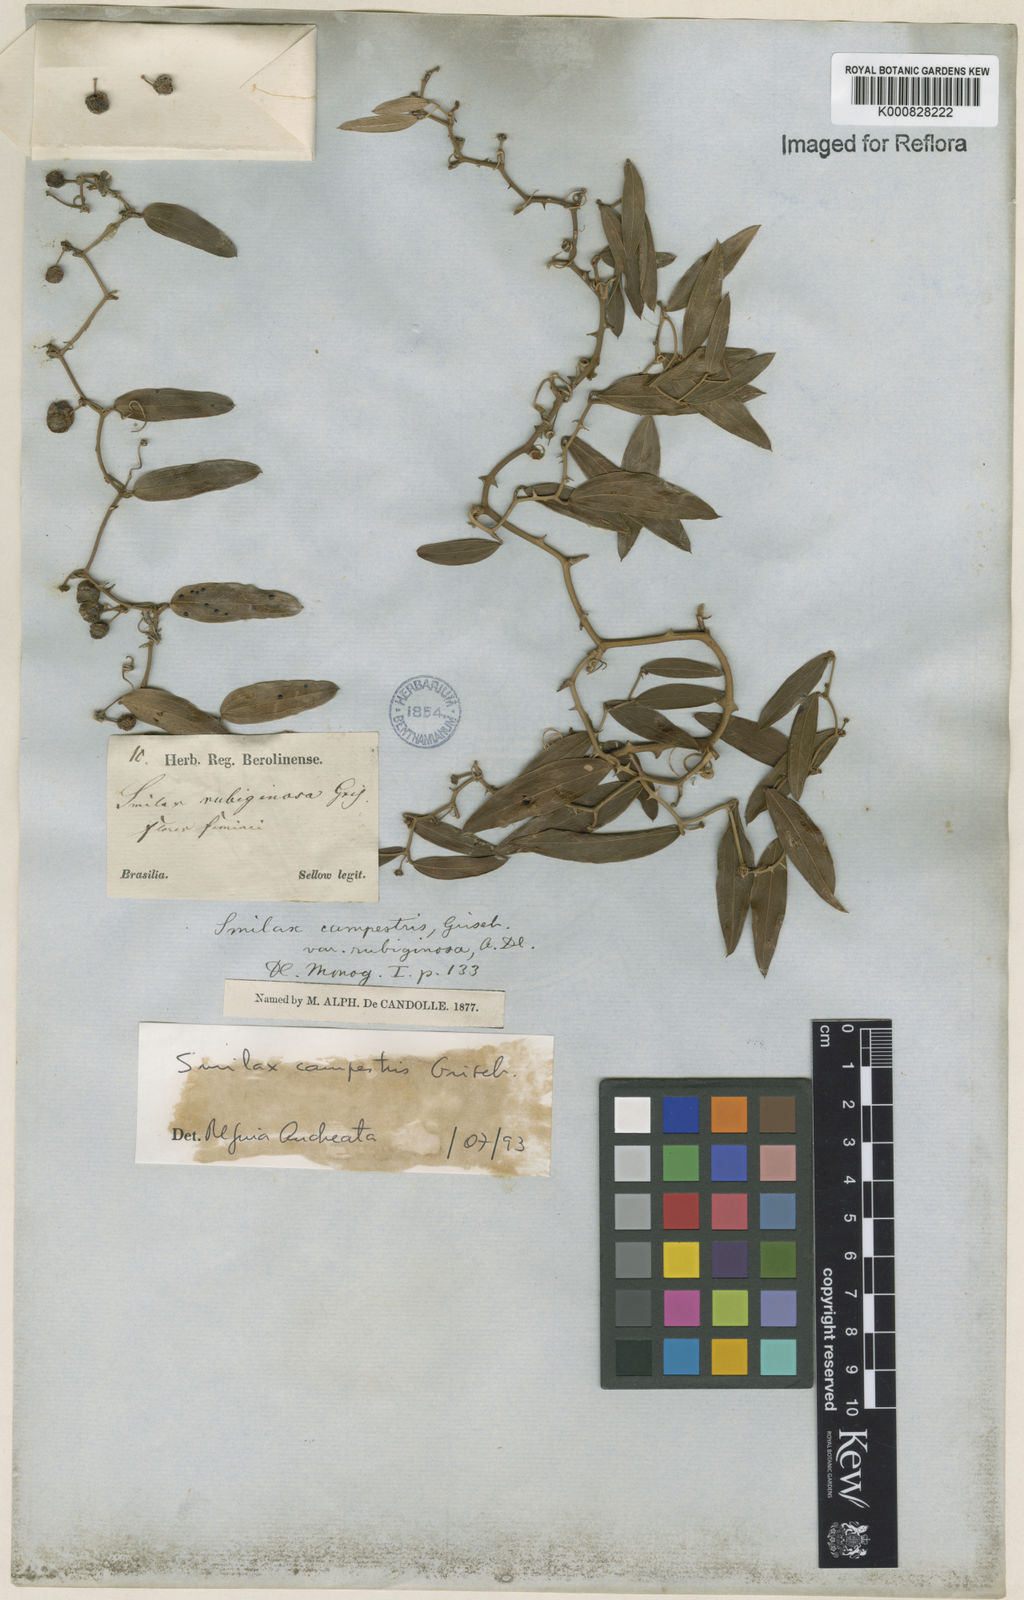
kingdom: Plantae
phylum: Tracheophyta
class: Liliopsida
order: Liliales
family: Smilacaceae
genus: Smilax
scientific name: Smilax campestris
